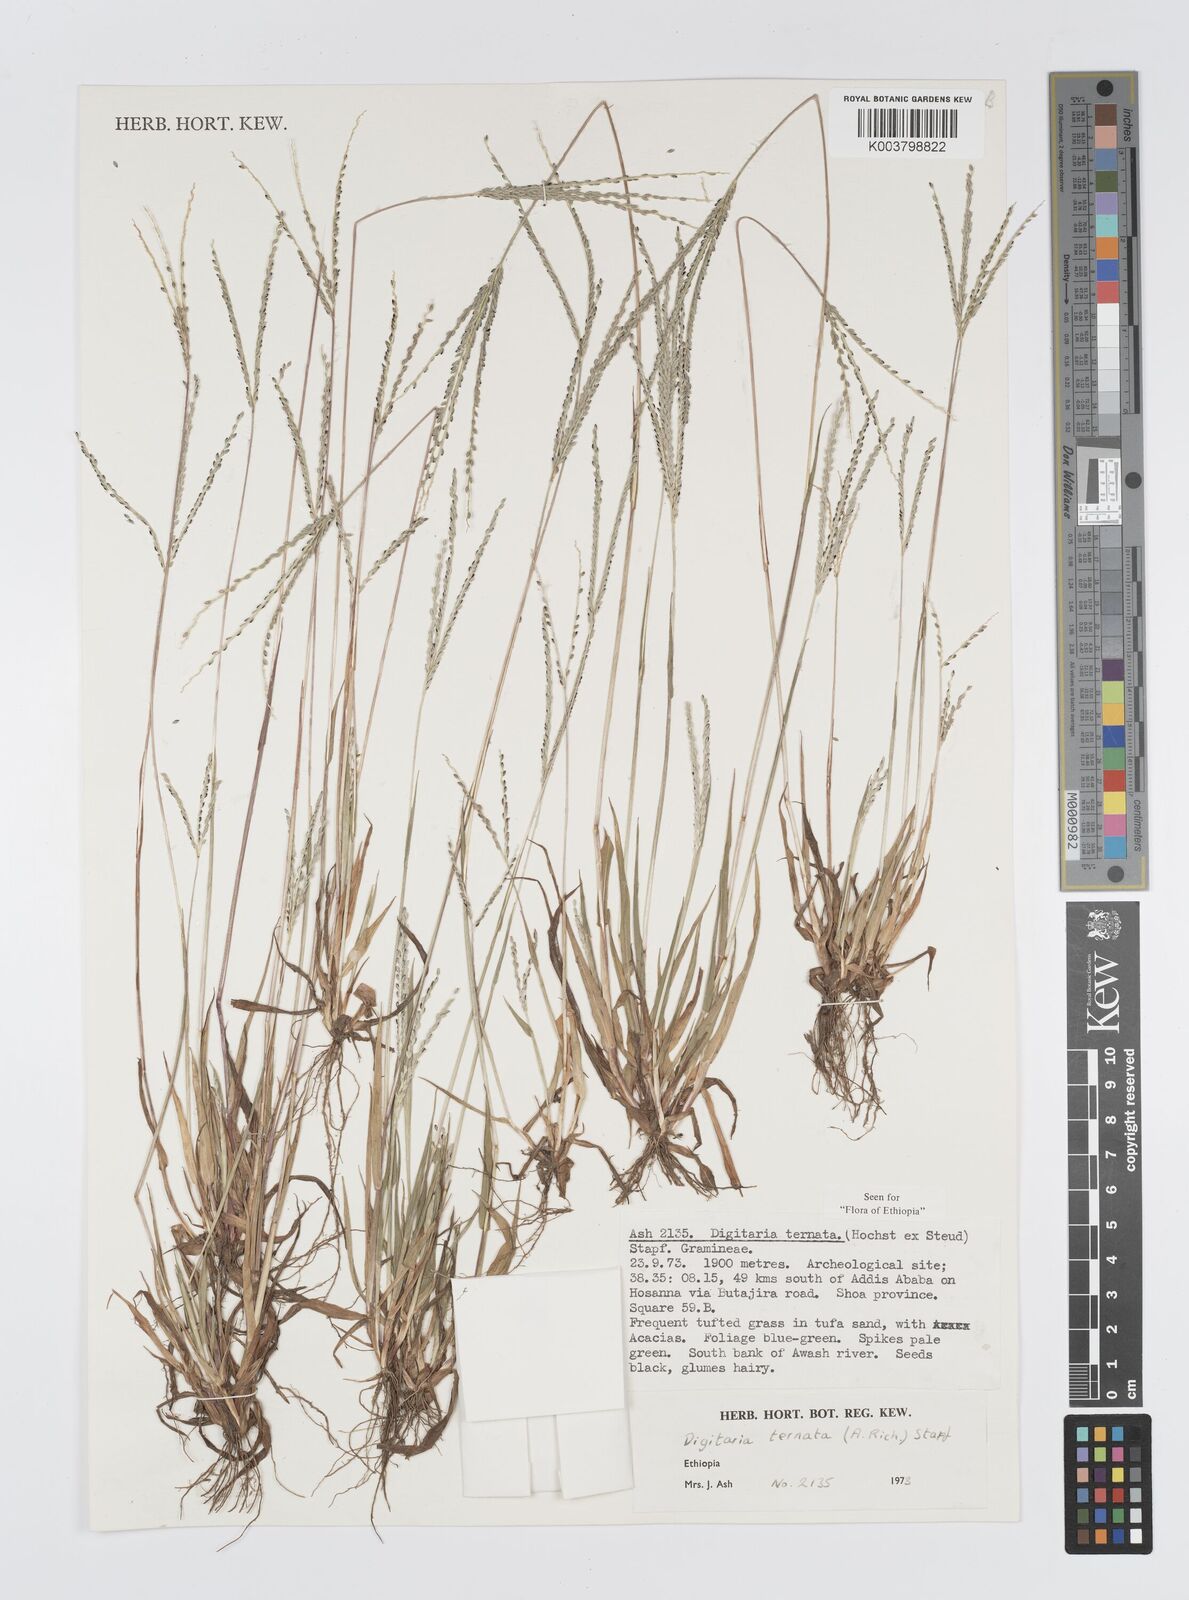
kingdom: Plantae
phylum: Tracheophyta
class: Liliopsida
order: Poales
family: Poaceae
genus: Digitaria
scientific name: Digitaria ternata
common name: Blackseed crabgrass
